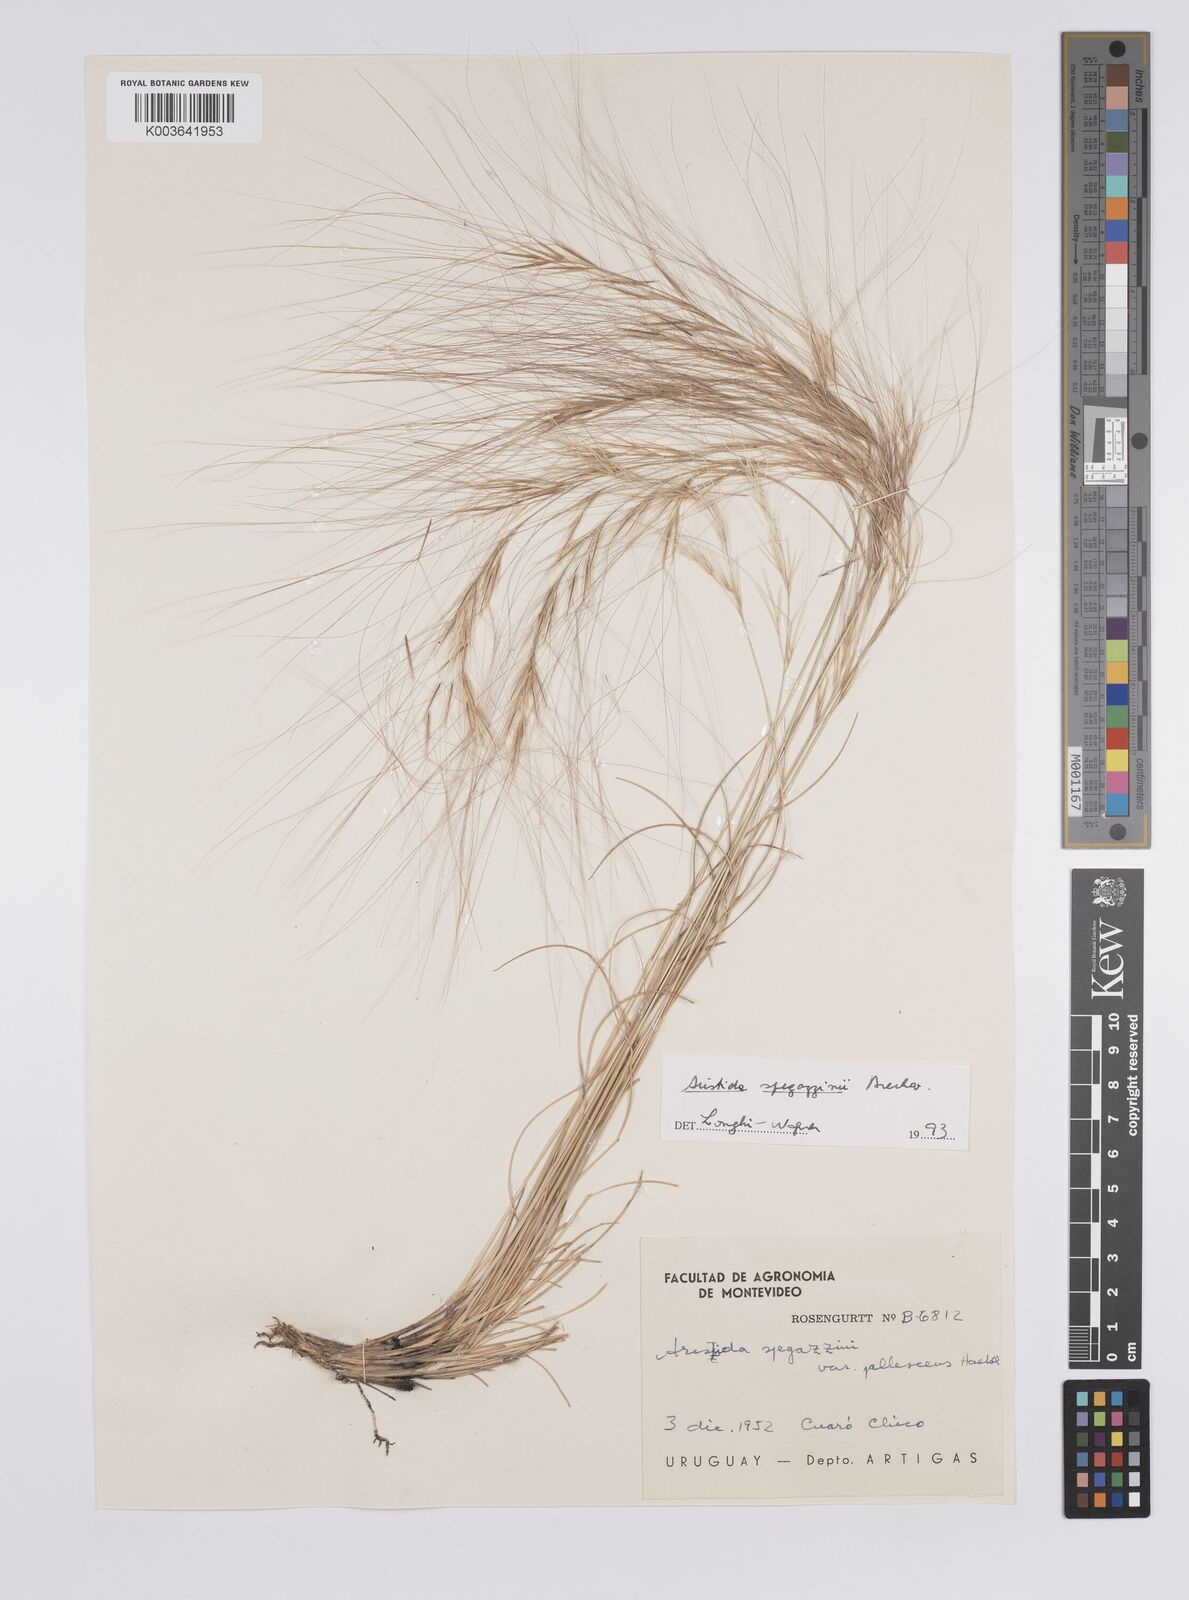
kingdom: Plantae
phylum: Tracheophyta
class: Liliopsida
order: Poales
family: Poaceae
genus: Aristida
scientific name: Aristida spegazzinii
